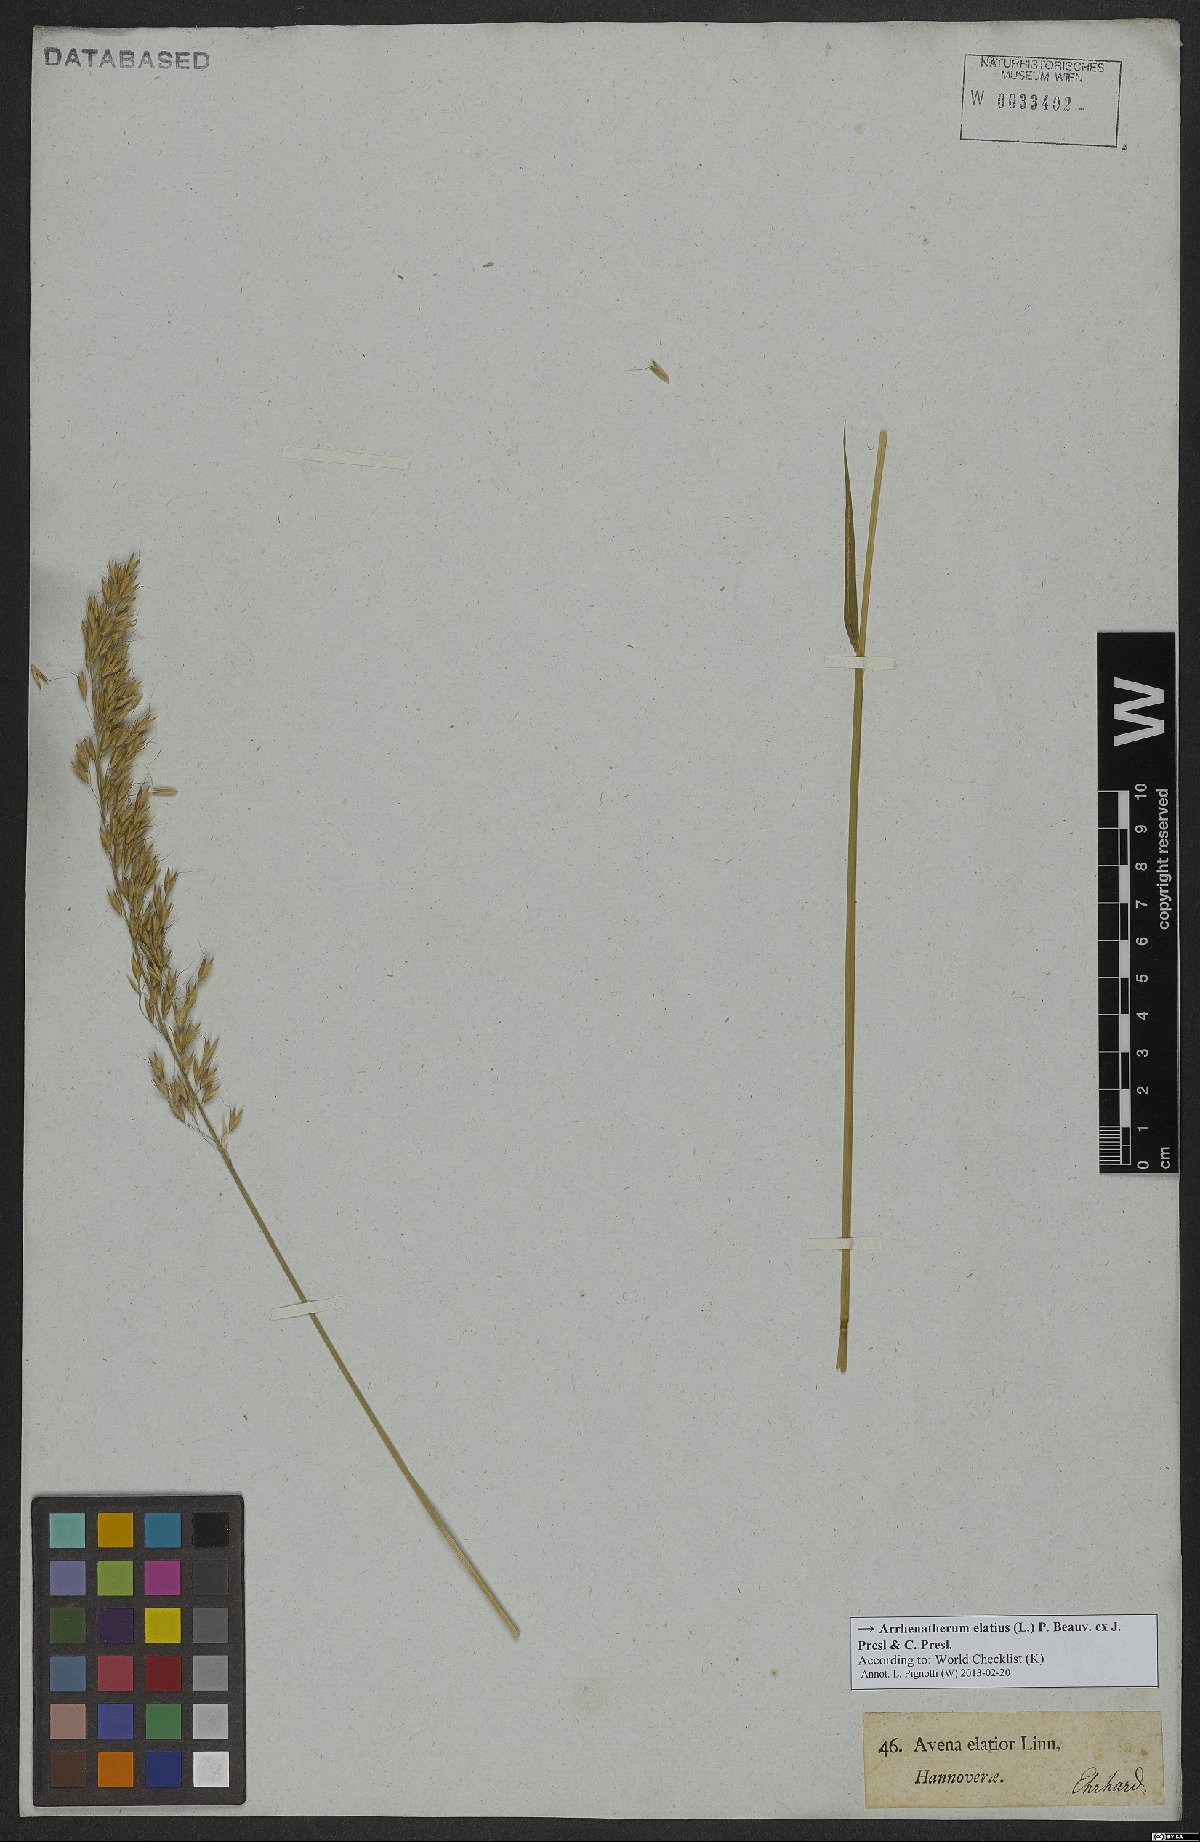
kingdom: Plantae
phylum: Tracheophyta
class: Liliopsida
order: Poales
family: Poaceae
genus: Arrhenatherum
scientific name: Arrhenatherum elatius
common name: Tall oatgrass
